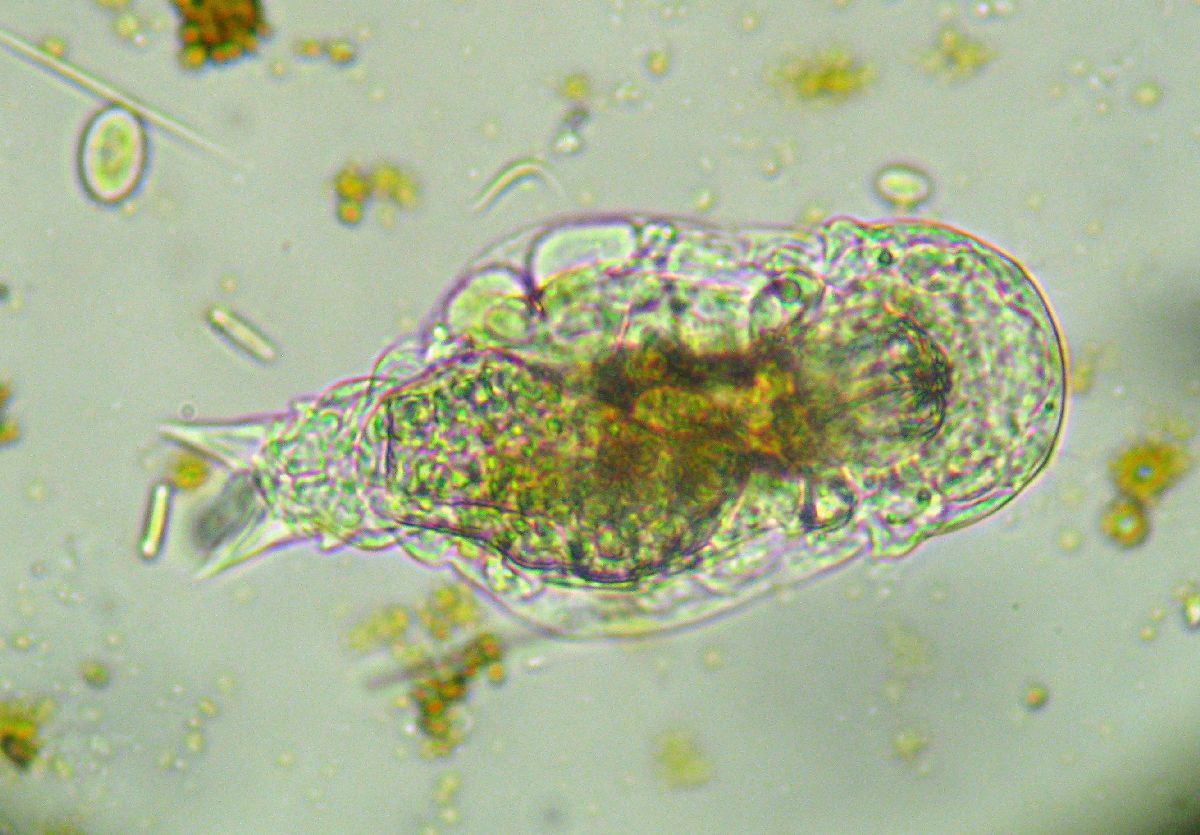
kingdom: Animalia
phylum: Rotifera
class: Eurotatoria
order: Ploima
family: Notommatidae
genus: Notommata
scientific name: Notommata tripus
